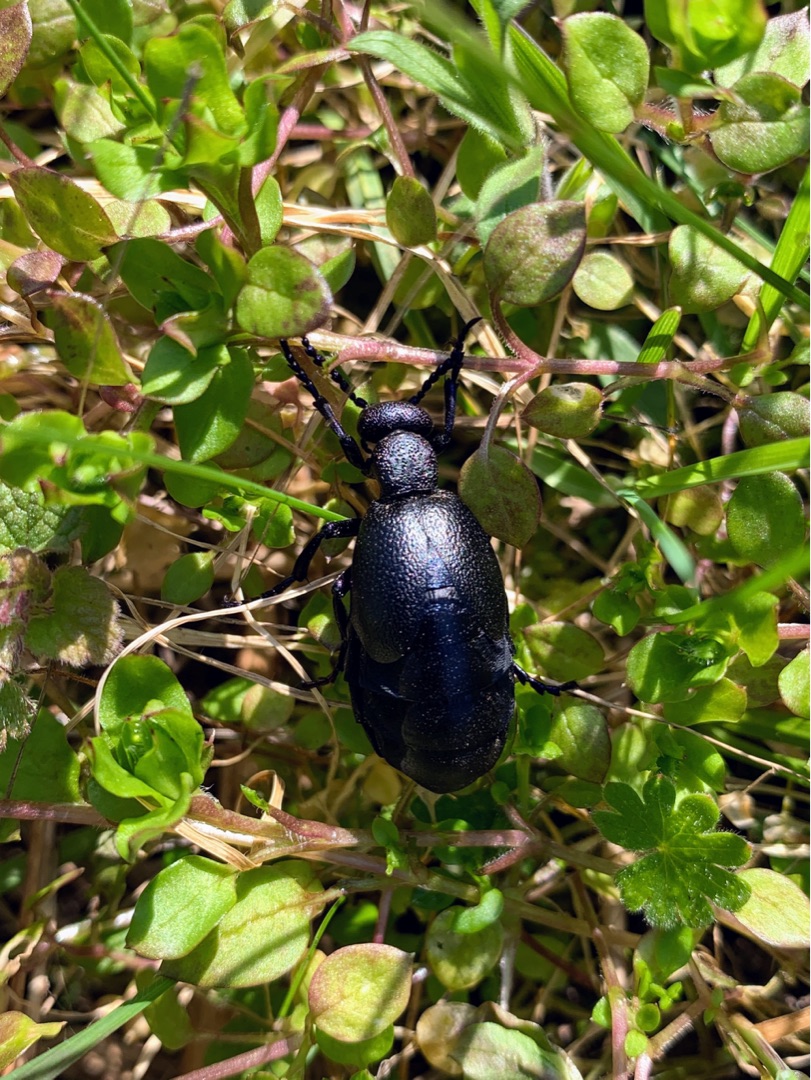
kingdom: Animalia
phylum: Arthropoda
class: Insecta
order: Coleoptera
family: Meloidae
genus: Meloe
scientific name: Meloe proscarabaeus
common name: Sort oliebille
